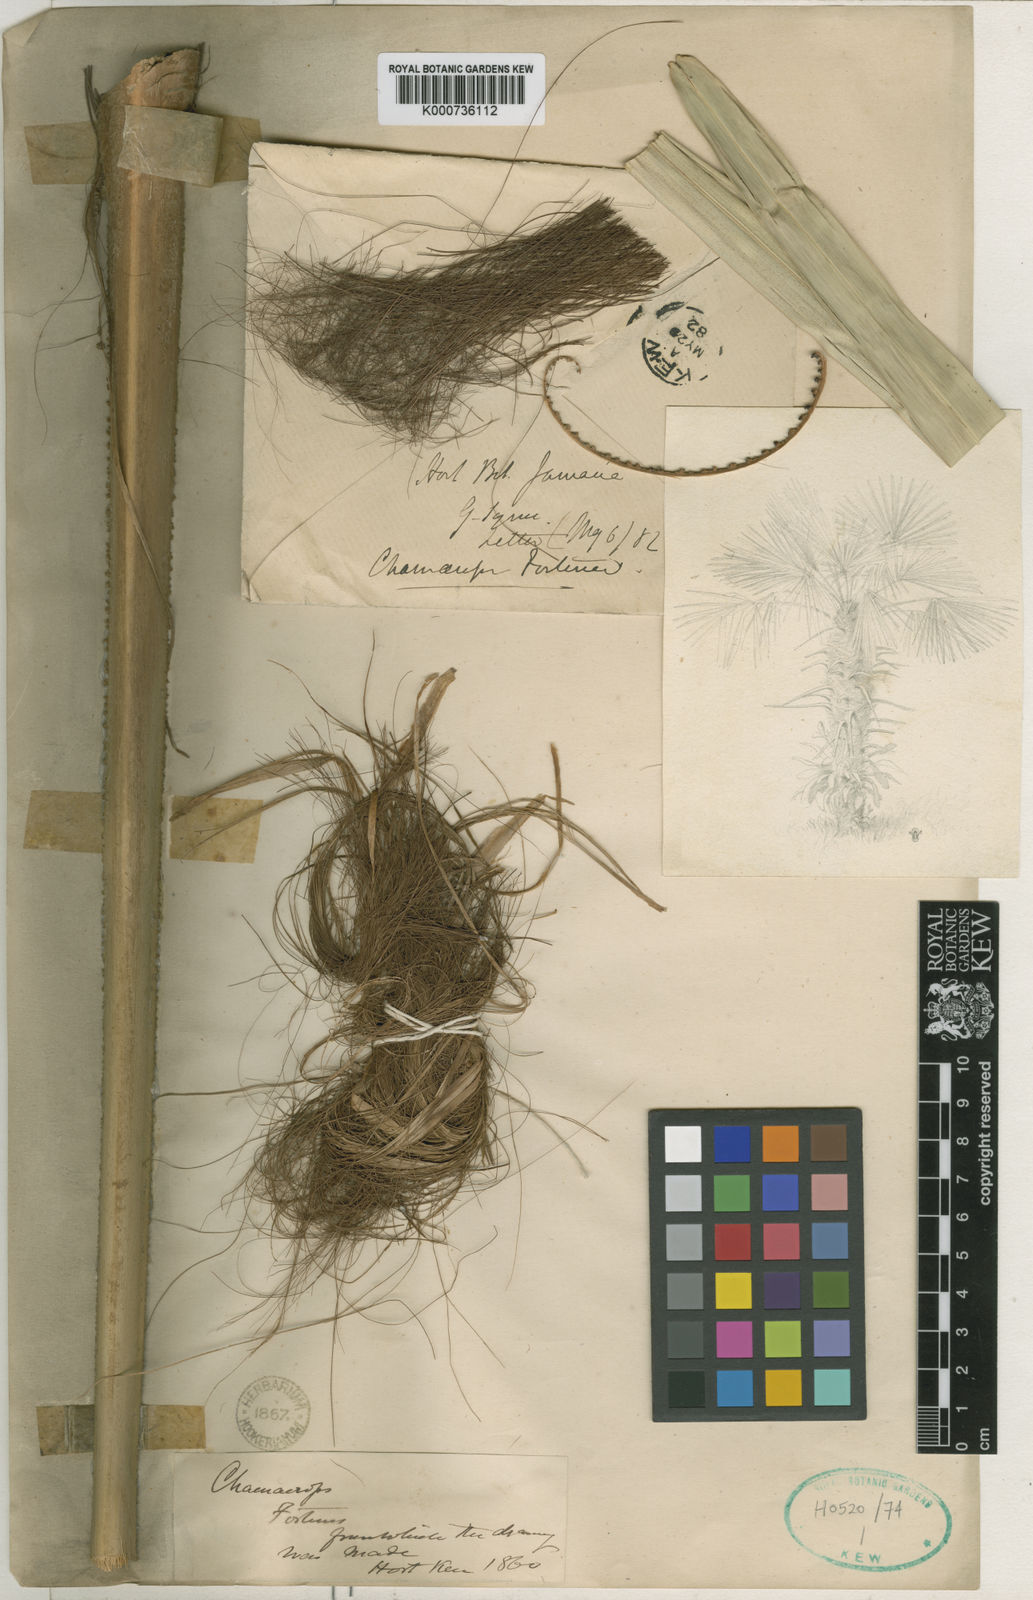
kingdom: Plantae
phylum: Tracheophyta
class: Liliopsida
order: Arecales
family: Arecaceae
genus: Trachycarpus
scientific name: Trachycarpus fortunei
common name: Chusan palm
